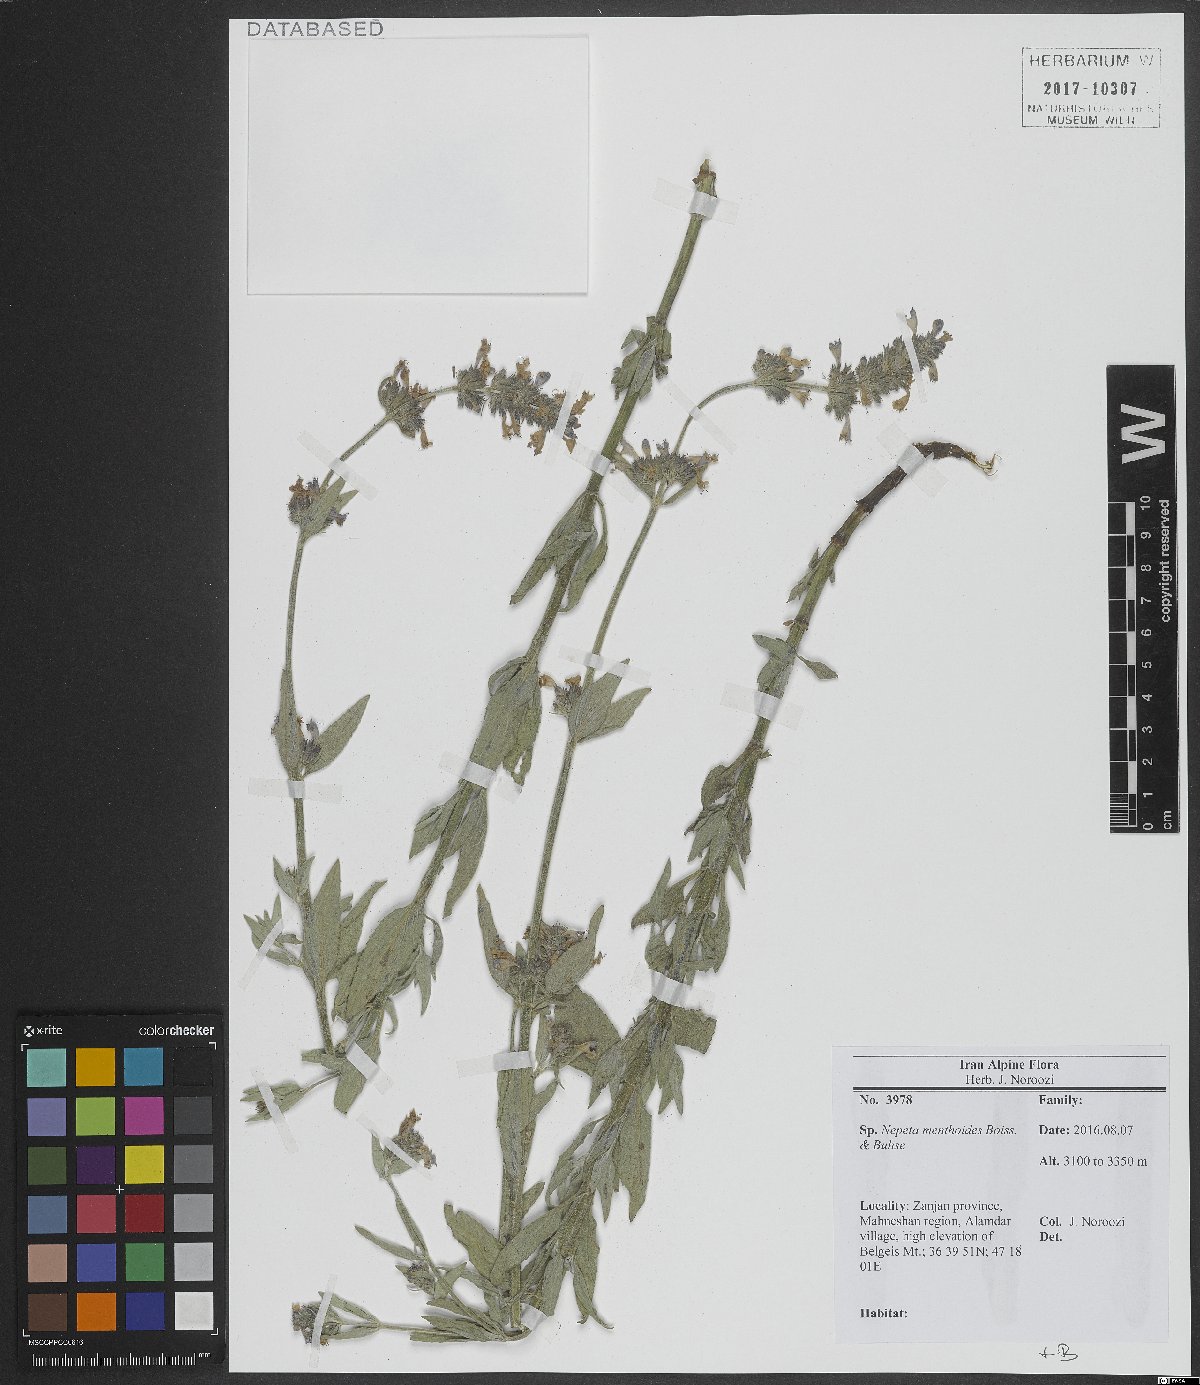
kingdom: Plantae
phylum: Tracheophyta
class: Magnoliopsida
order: Lamiales
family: Lamiaceae
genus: Nepeta
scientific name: Nepeta menthoides
